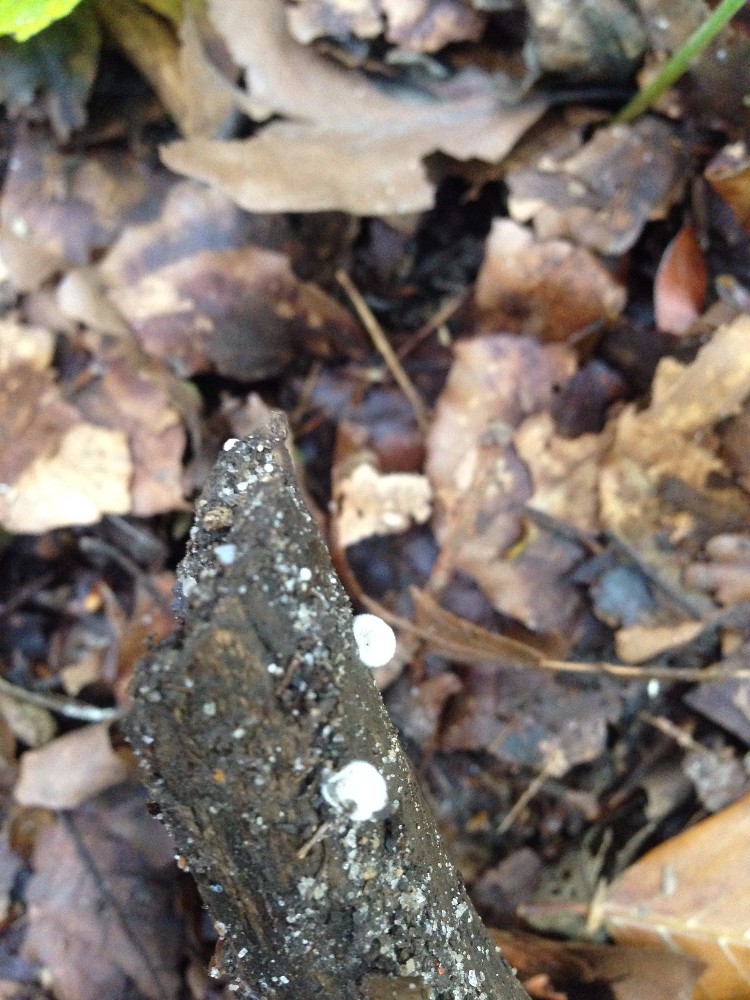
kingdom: Fungi
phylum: Basidiomycota
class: Agaricomycetes
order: Agaricales
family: Crepidotaceae
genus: Crepidotus
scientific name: Crepidotus cesatii
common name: almindelig muslingesvamp
